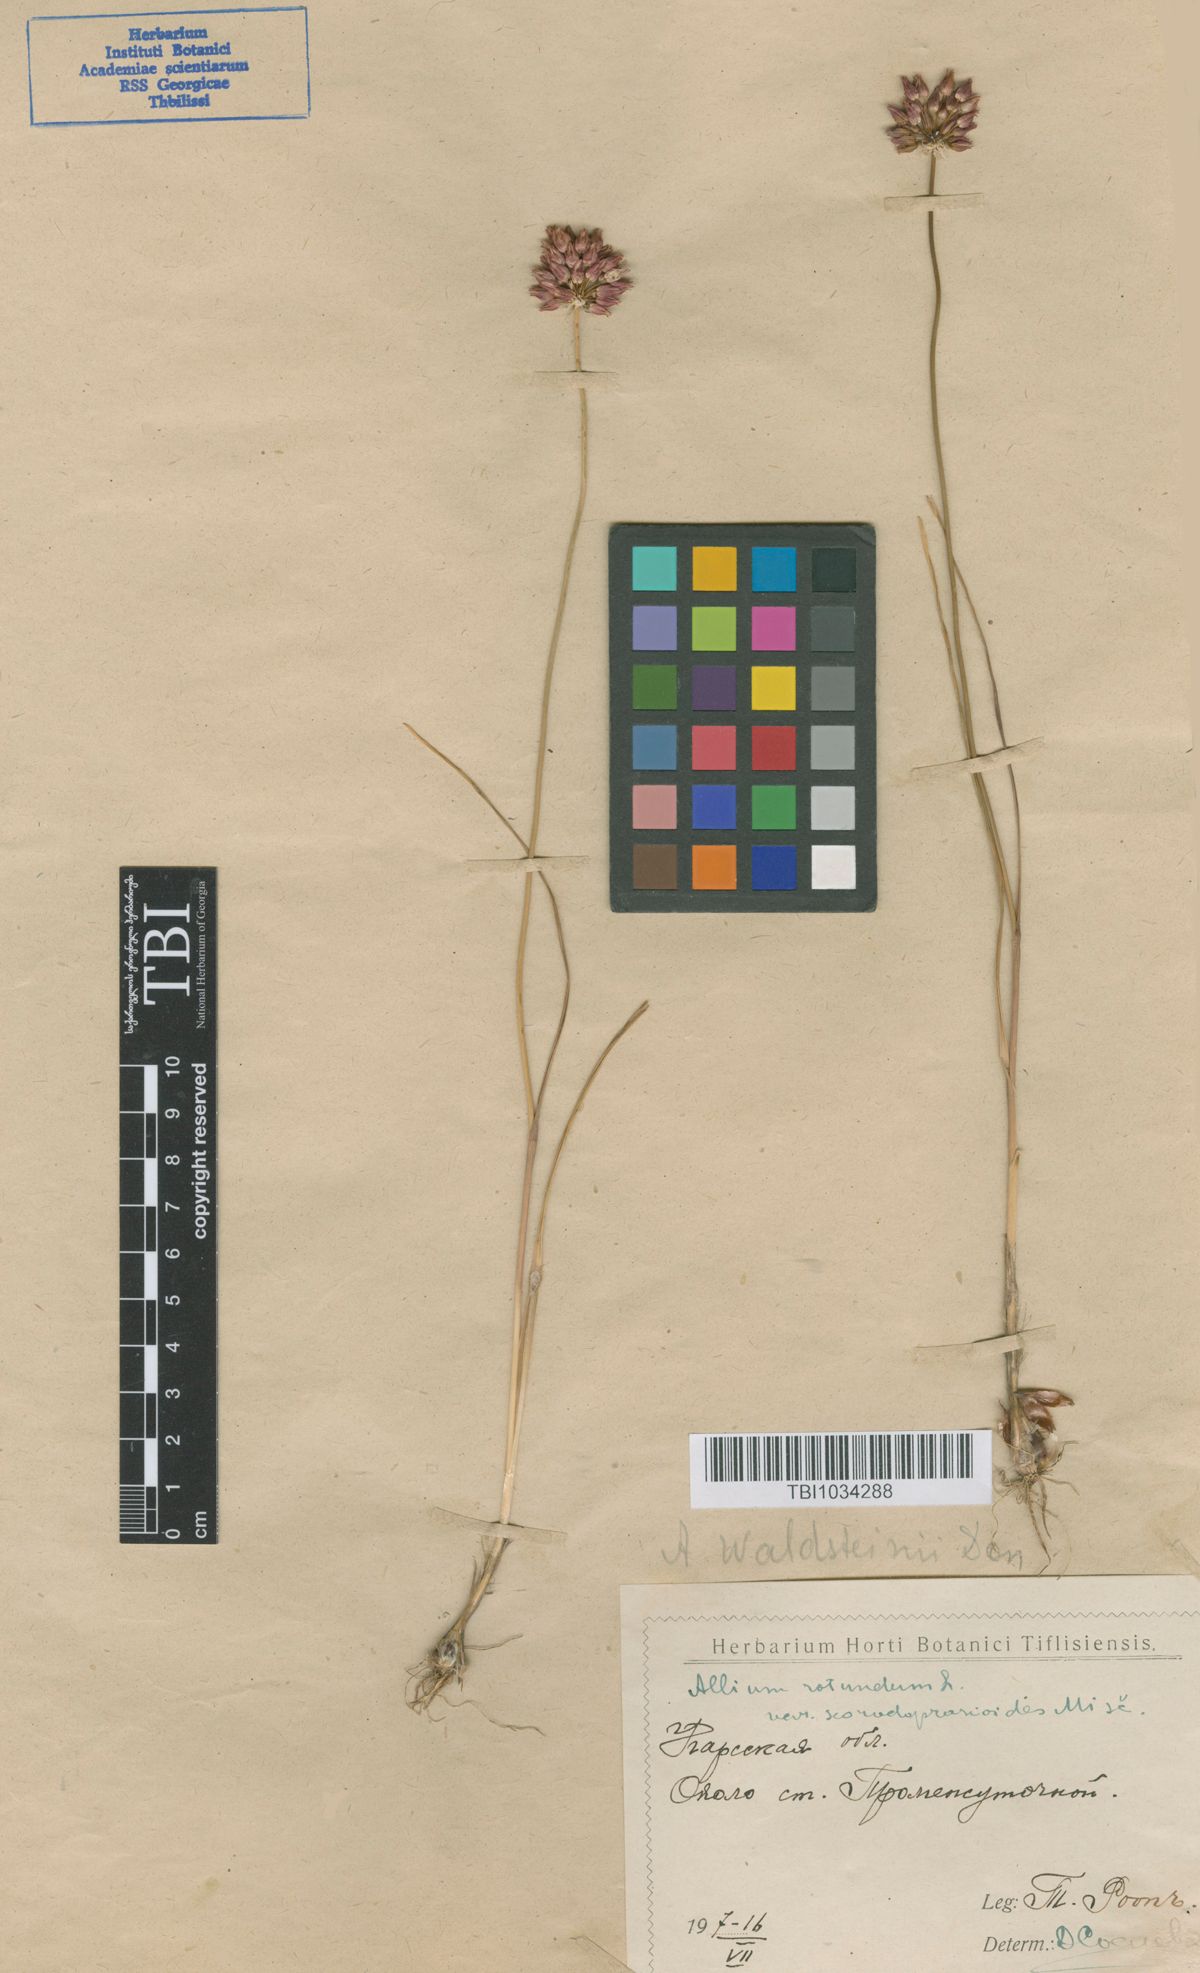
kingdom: Plantae
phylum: Tracheophyta
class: Liliopsida
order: Asparagales
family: Amaryllidaceae
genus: Allium
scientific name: Allium rotundum
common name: Sand leek
